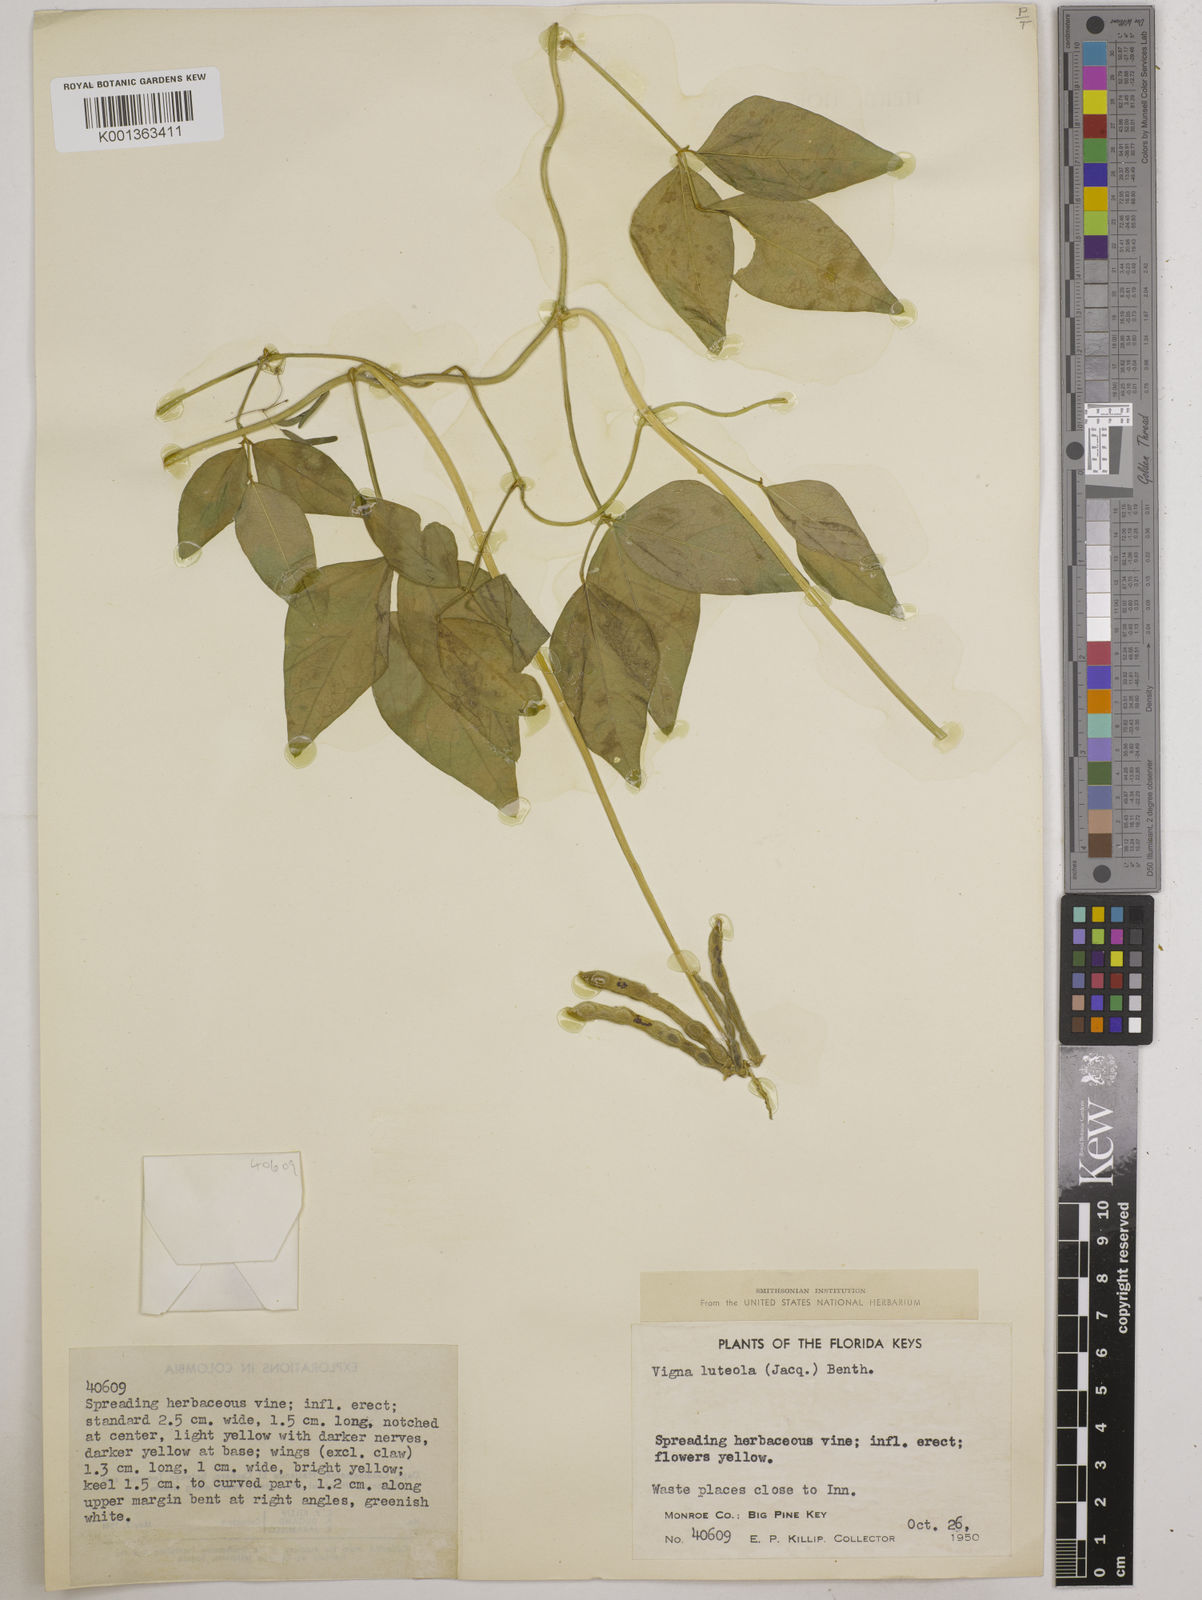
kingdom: Plantae
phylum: Tracheophyta
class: Magnoliopsida
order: Fabales
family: Fabaceae
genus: Vigna
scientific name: Vigna luteola
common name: Hairypod cowpea
